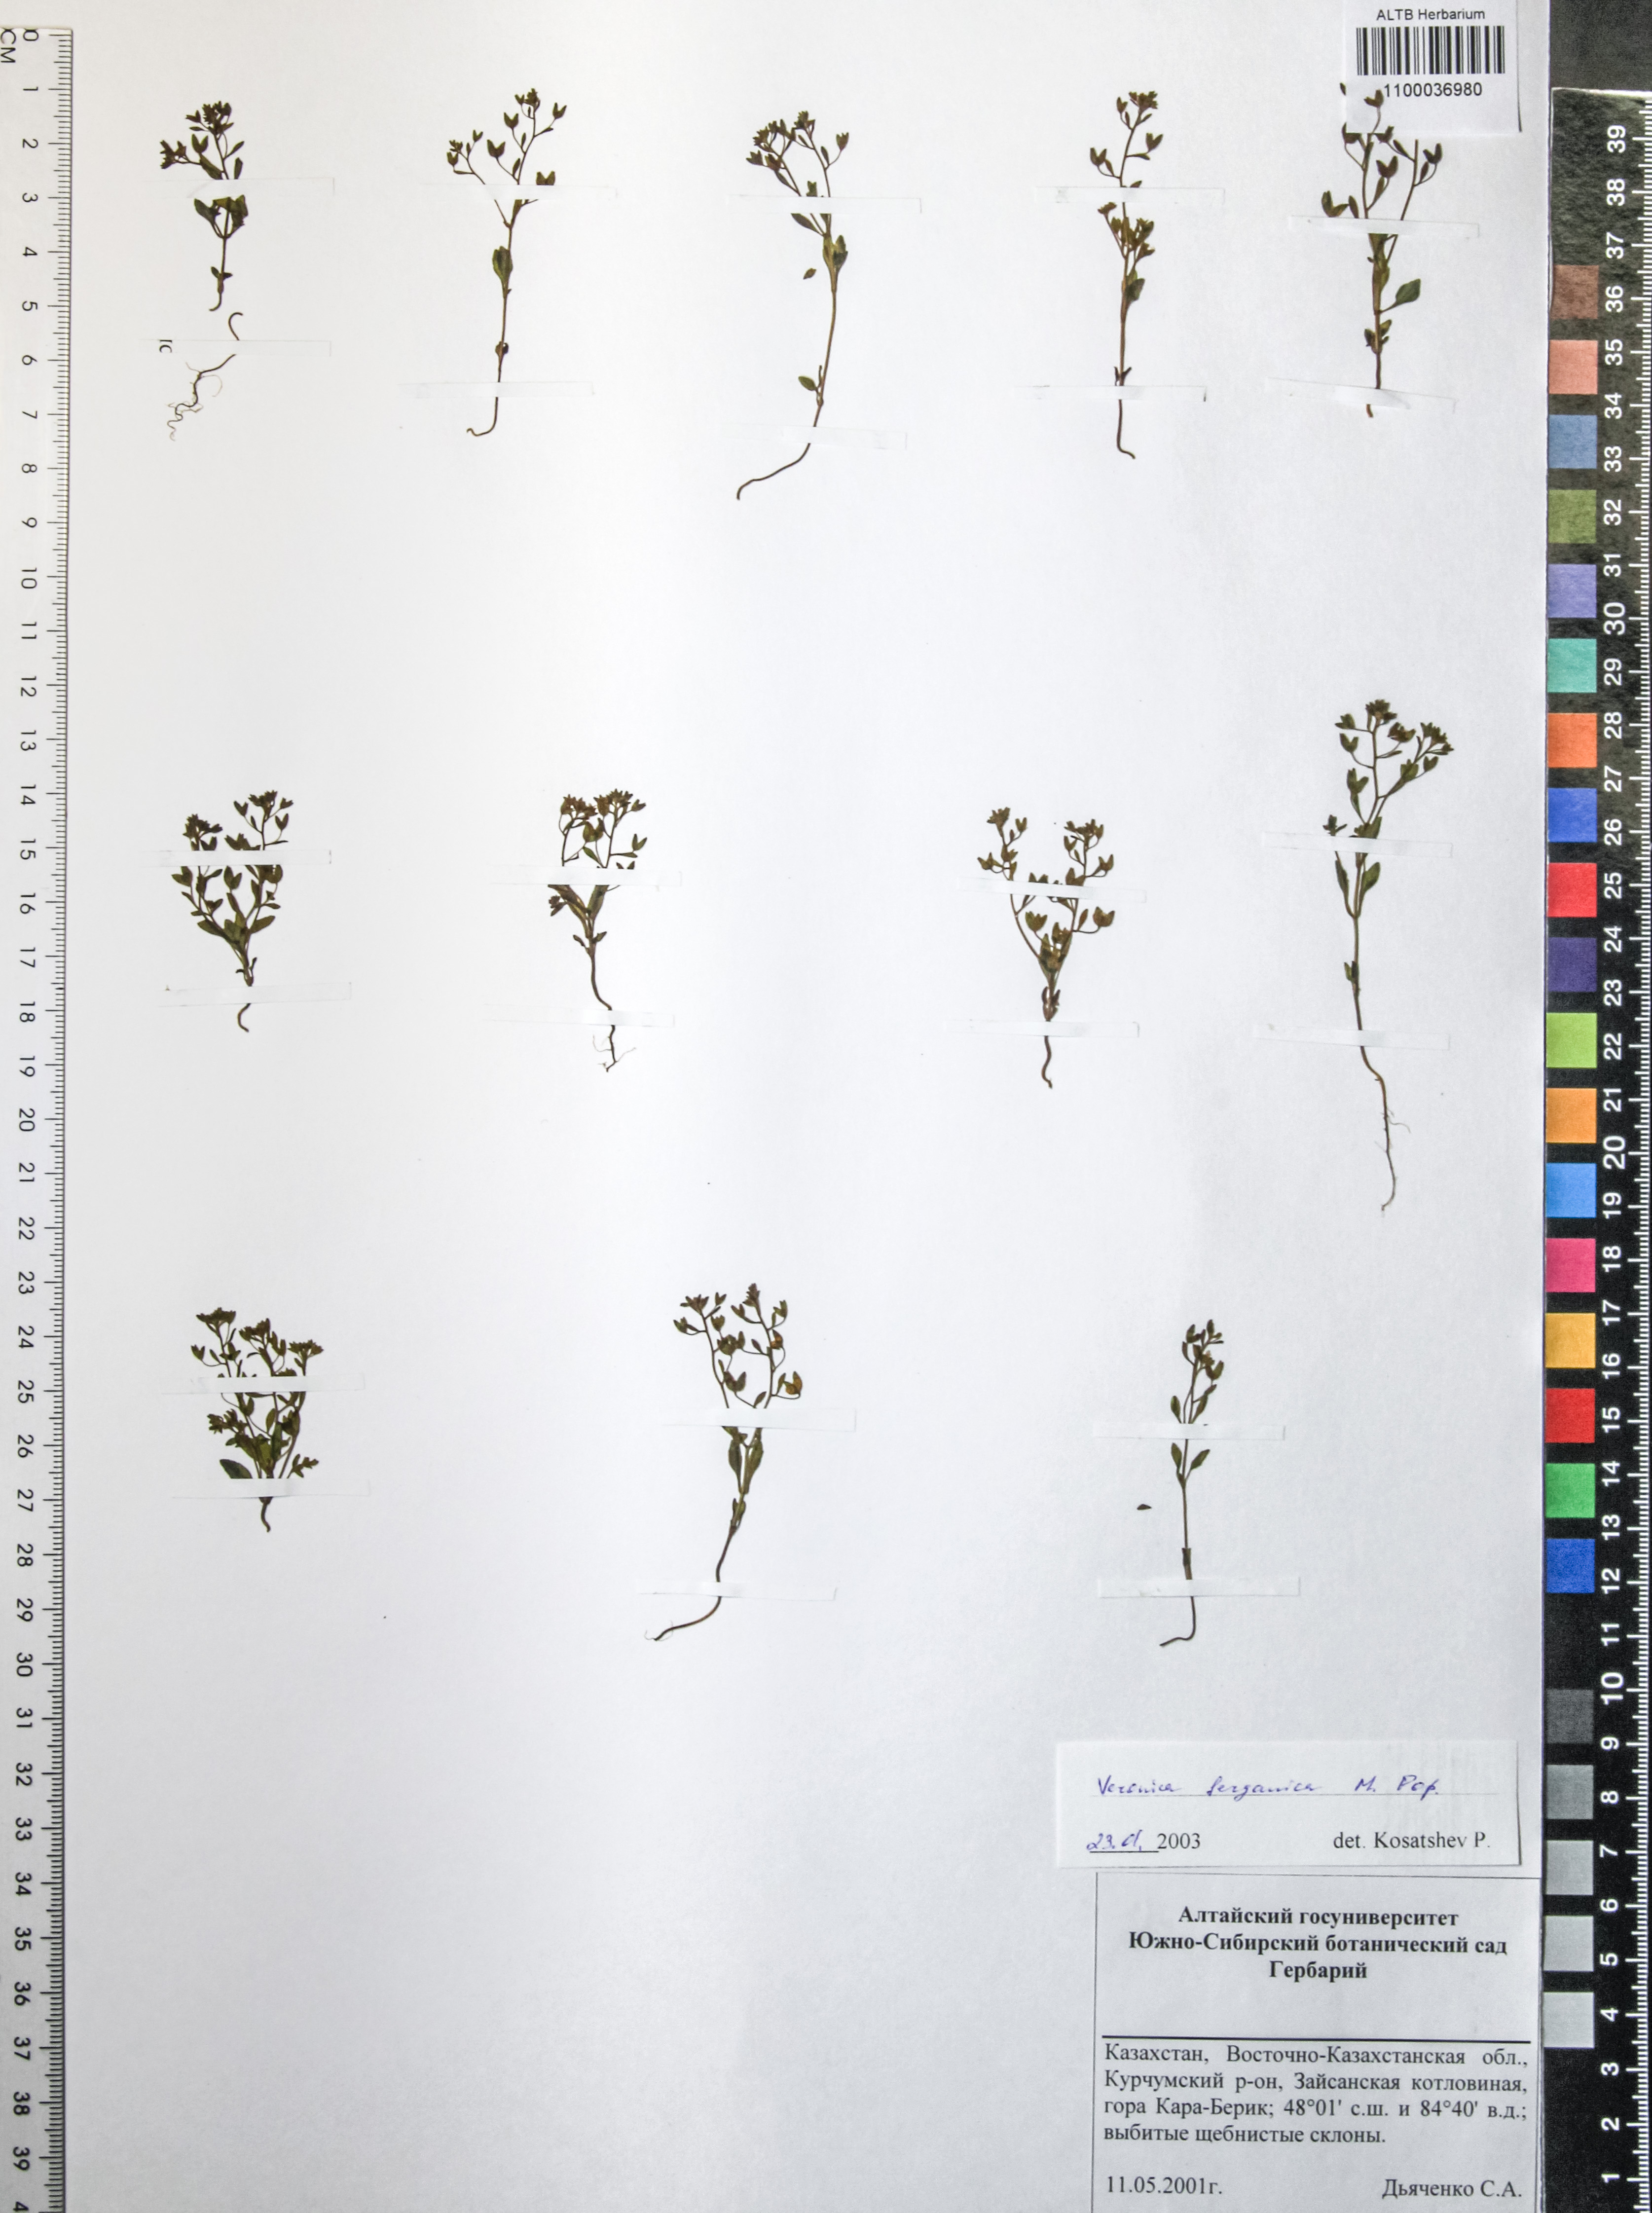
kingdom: Plantae
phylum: Tracheophyta
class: Magnoliopsida
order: Lamiales
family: Plantaginaceae
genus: Veronica
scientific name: Veronica ferganica
